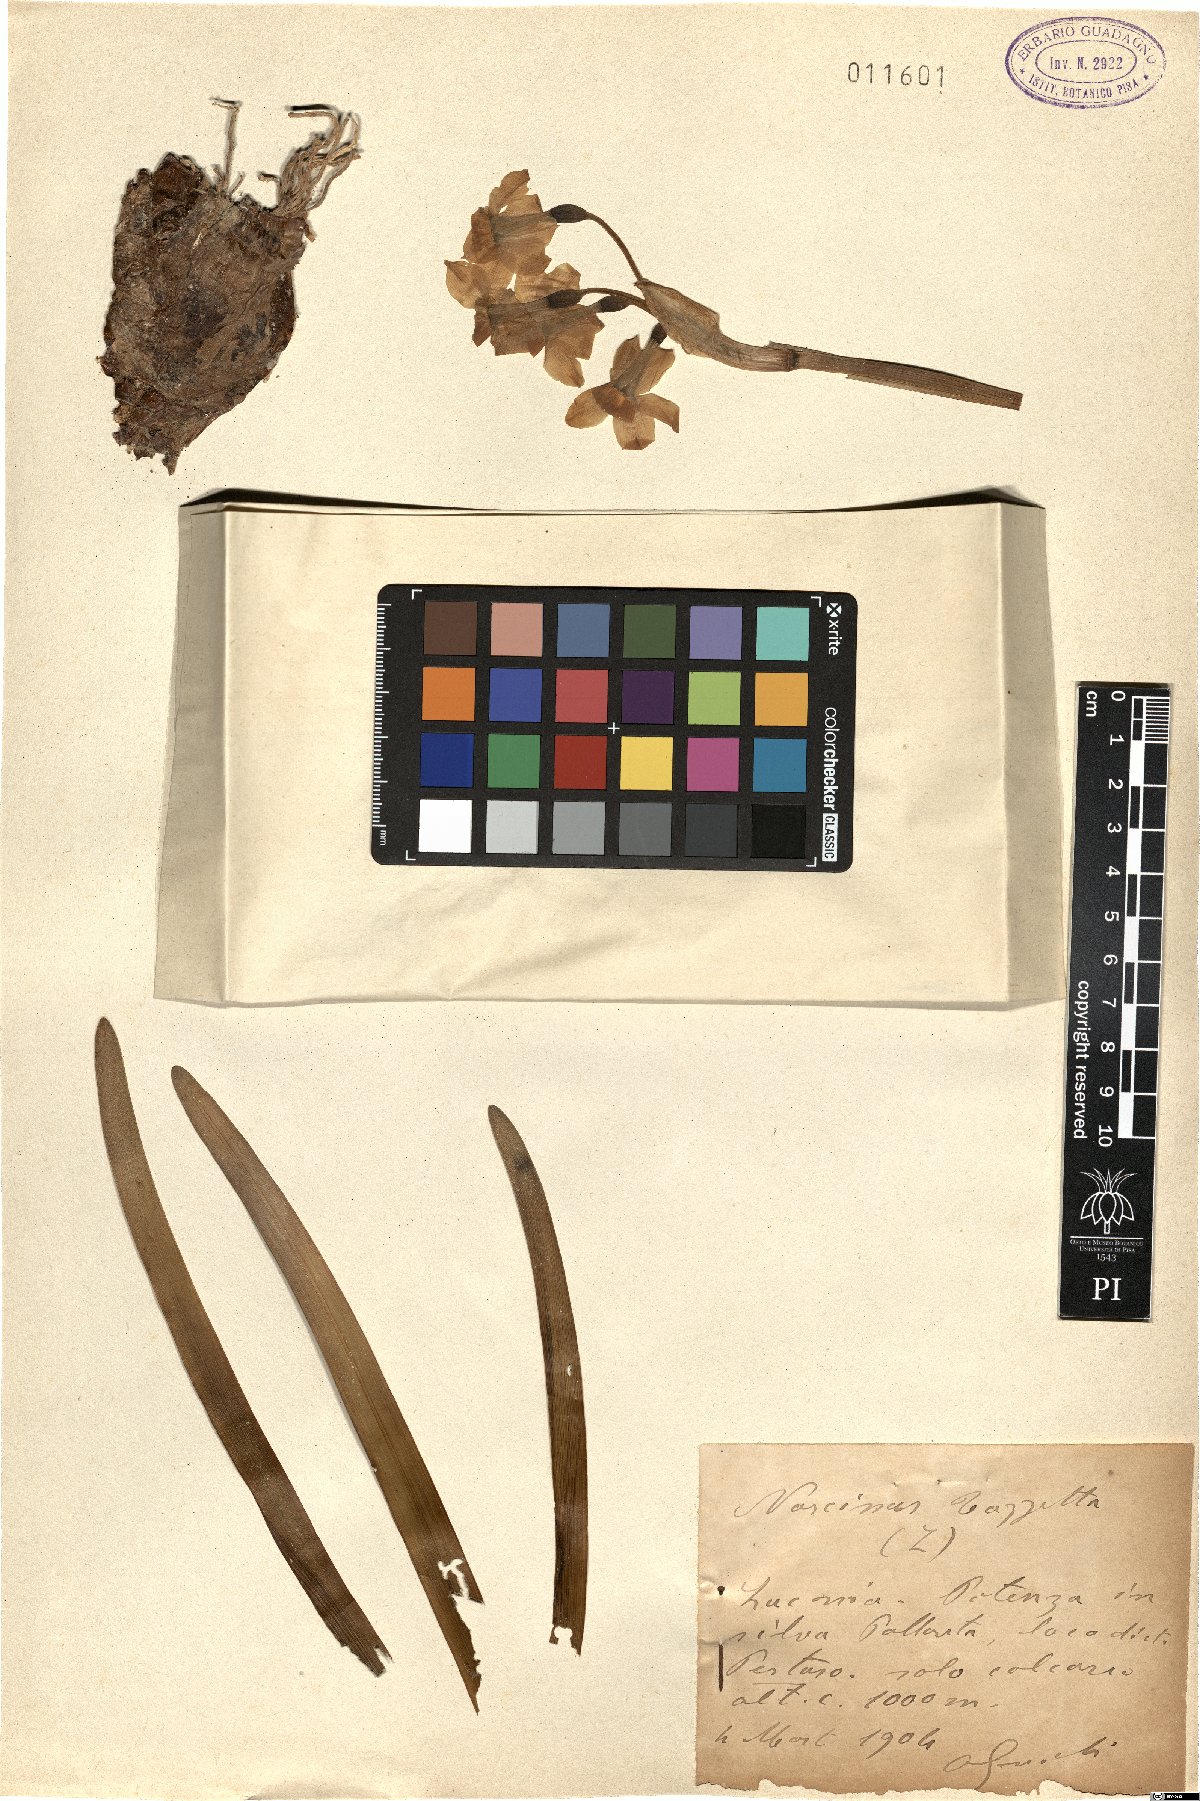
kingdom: Plantae
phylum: Tracheophyta
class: Liliopsida
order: Asparagales
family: Amaryllidaceae
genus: Narcissus
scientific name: Narcissus tazetta
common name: Bunch-flowered daffodil
